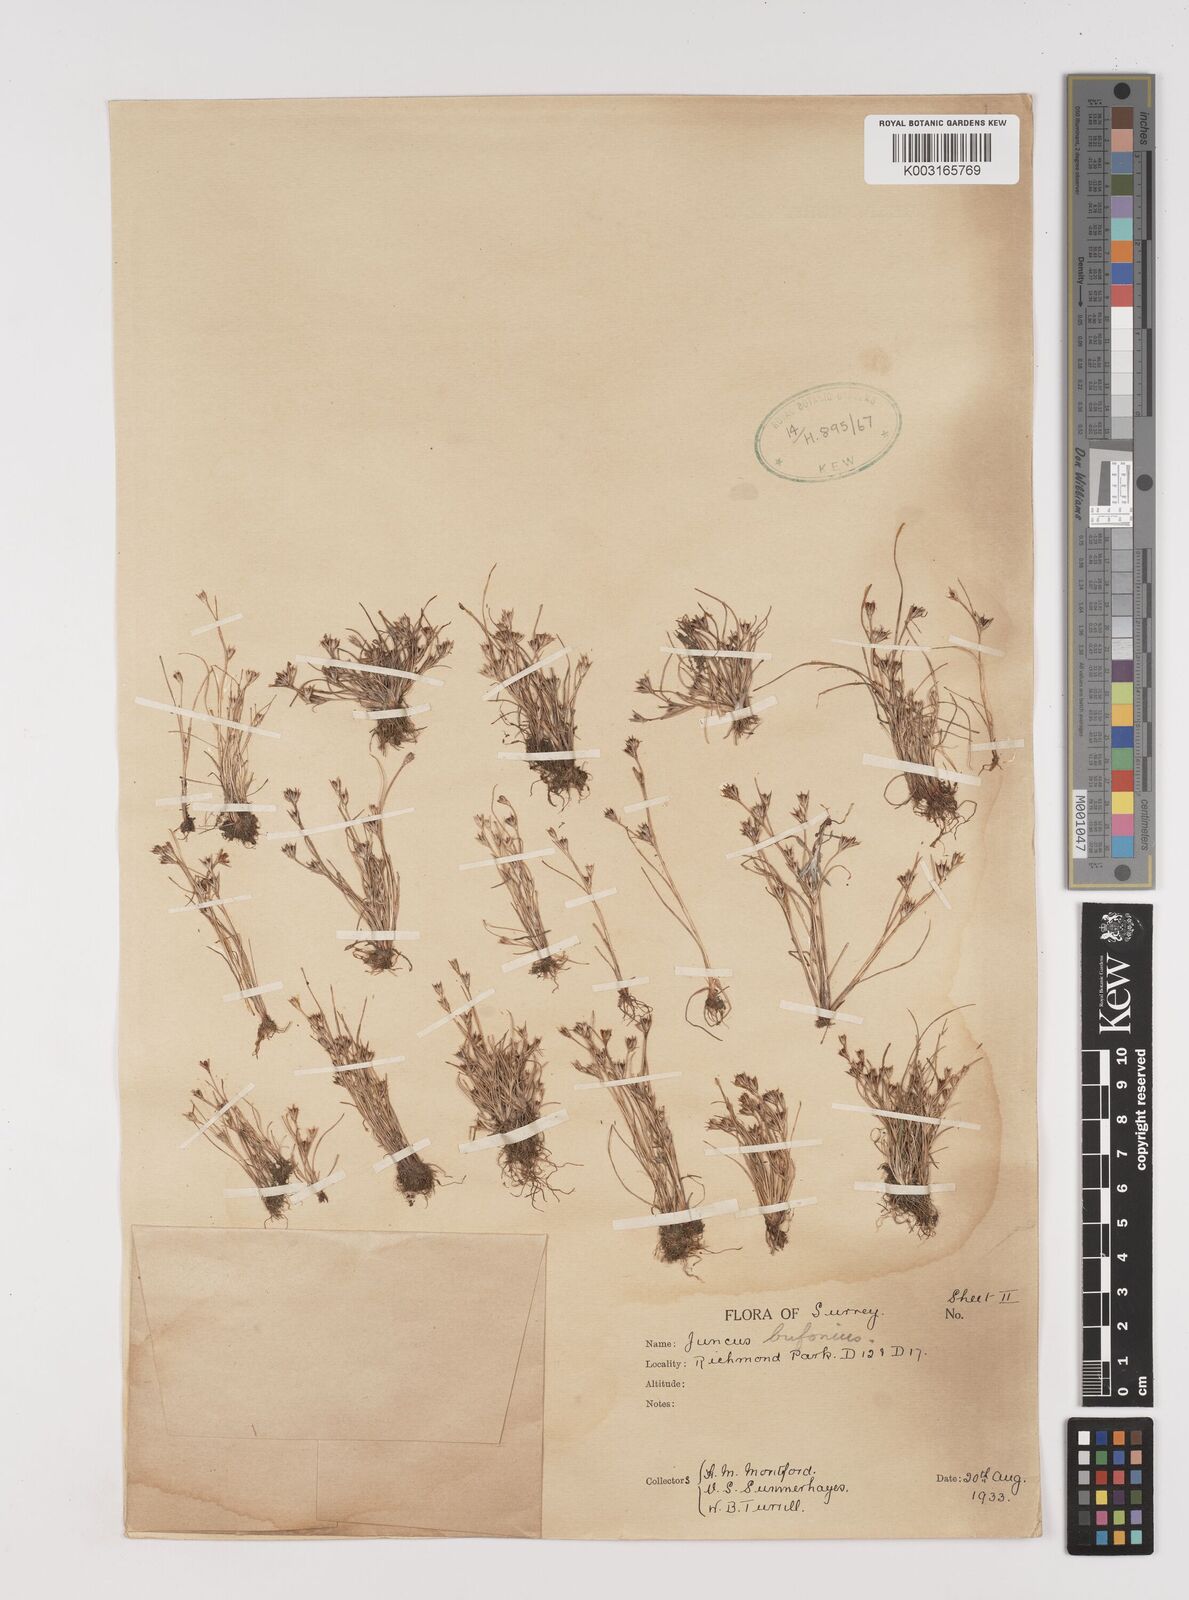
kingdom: Plantae
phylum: Tracheophyta
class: Liliopsida
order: Poales
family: Juncaceae
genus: Juncus
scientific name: Juncus bufonius
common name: Toad rush
